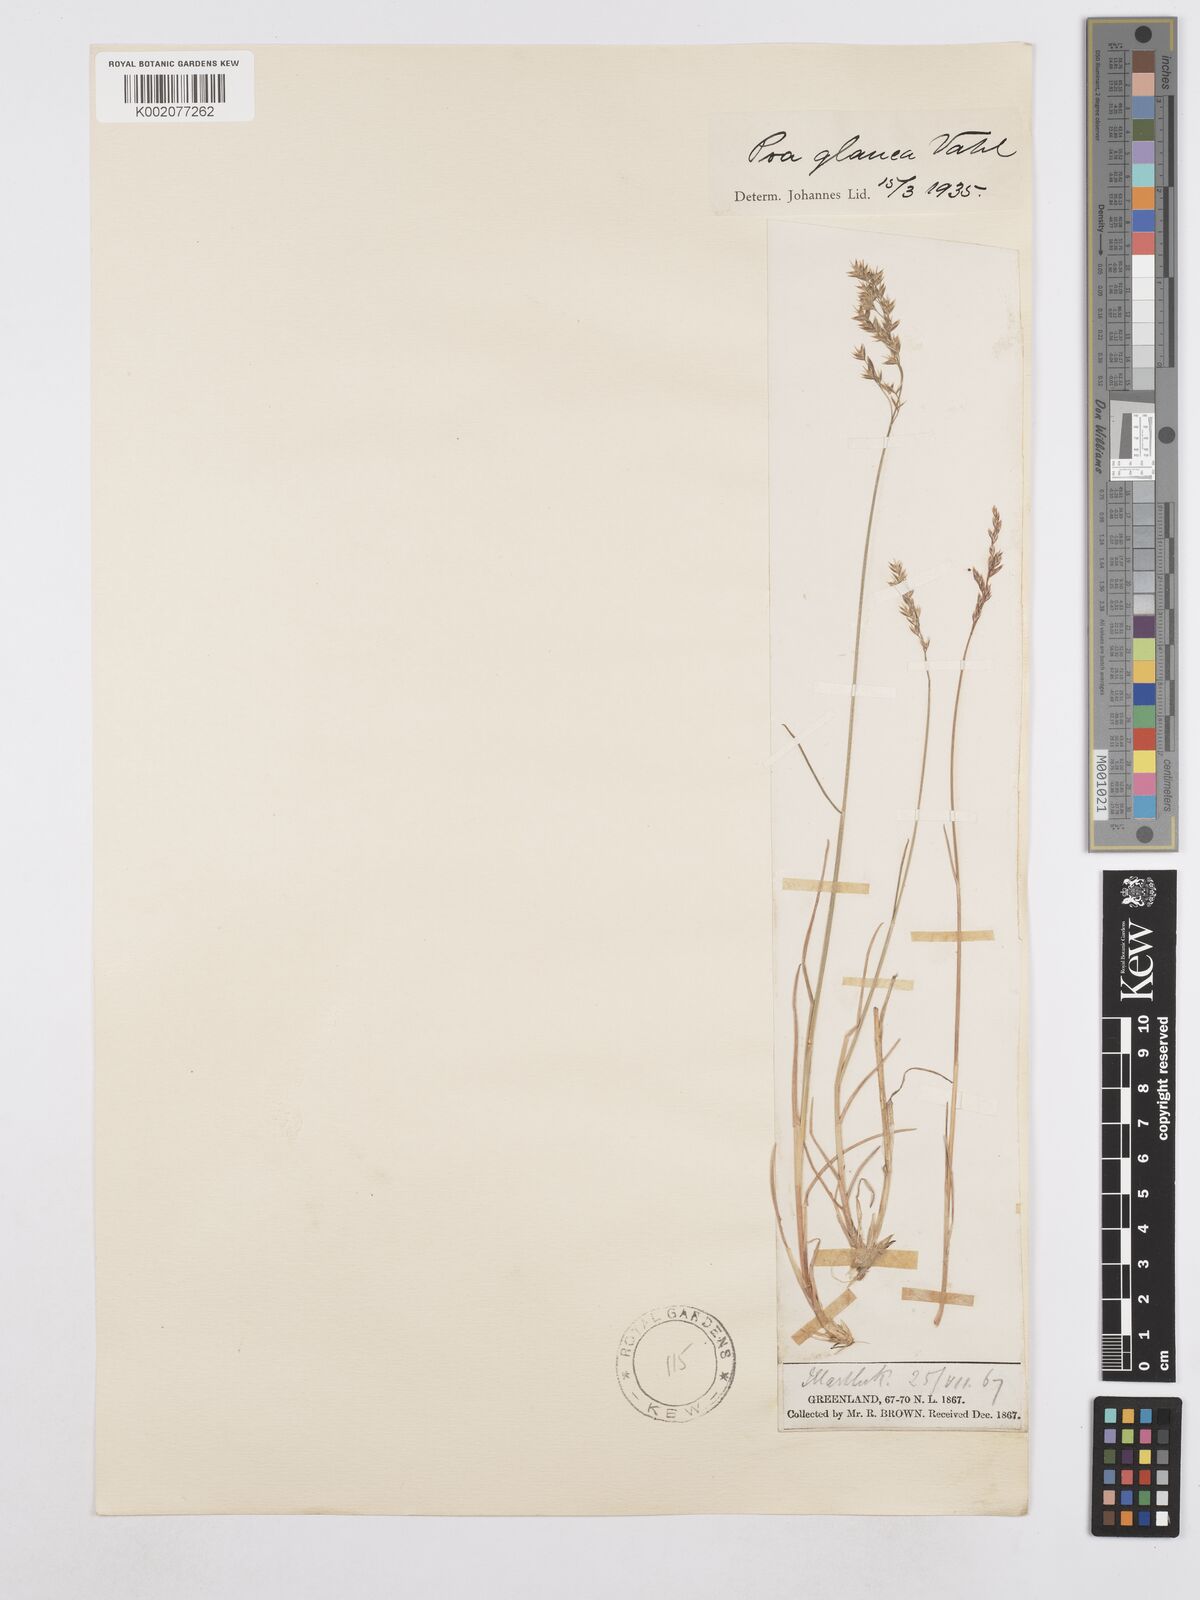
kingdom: Plantae
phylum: Tracheophyta
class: Liliopsida
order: Poales
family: Poaceae
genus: Poa
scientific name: Poa glauca
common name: Glaucous bluegrass
